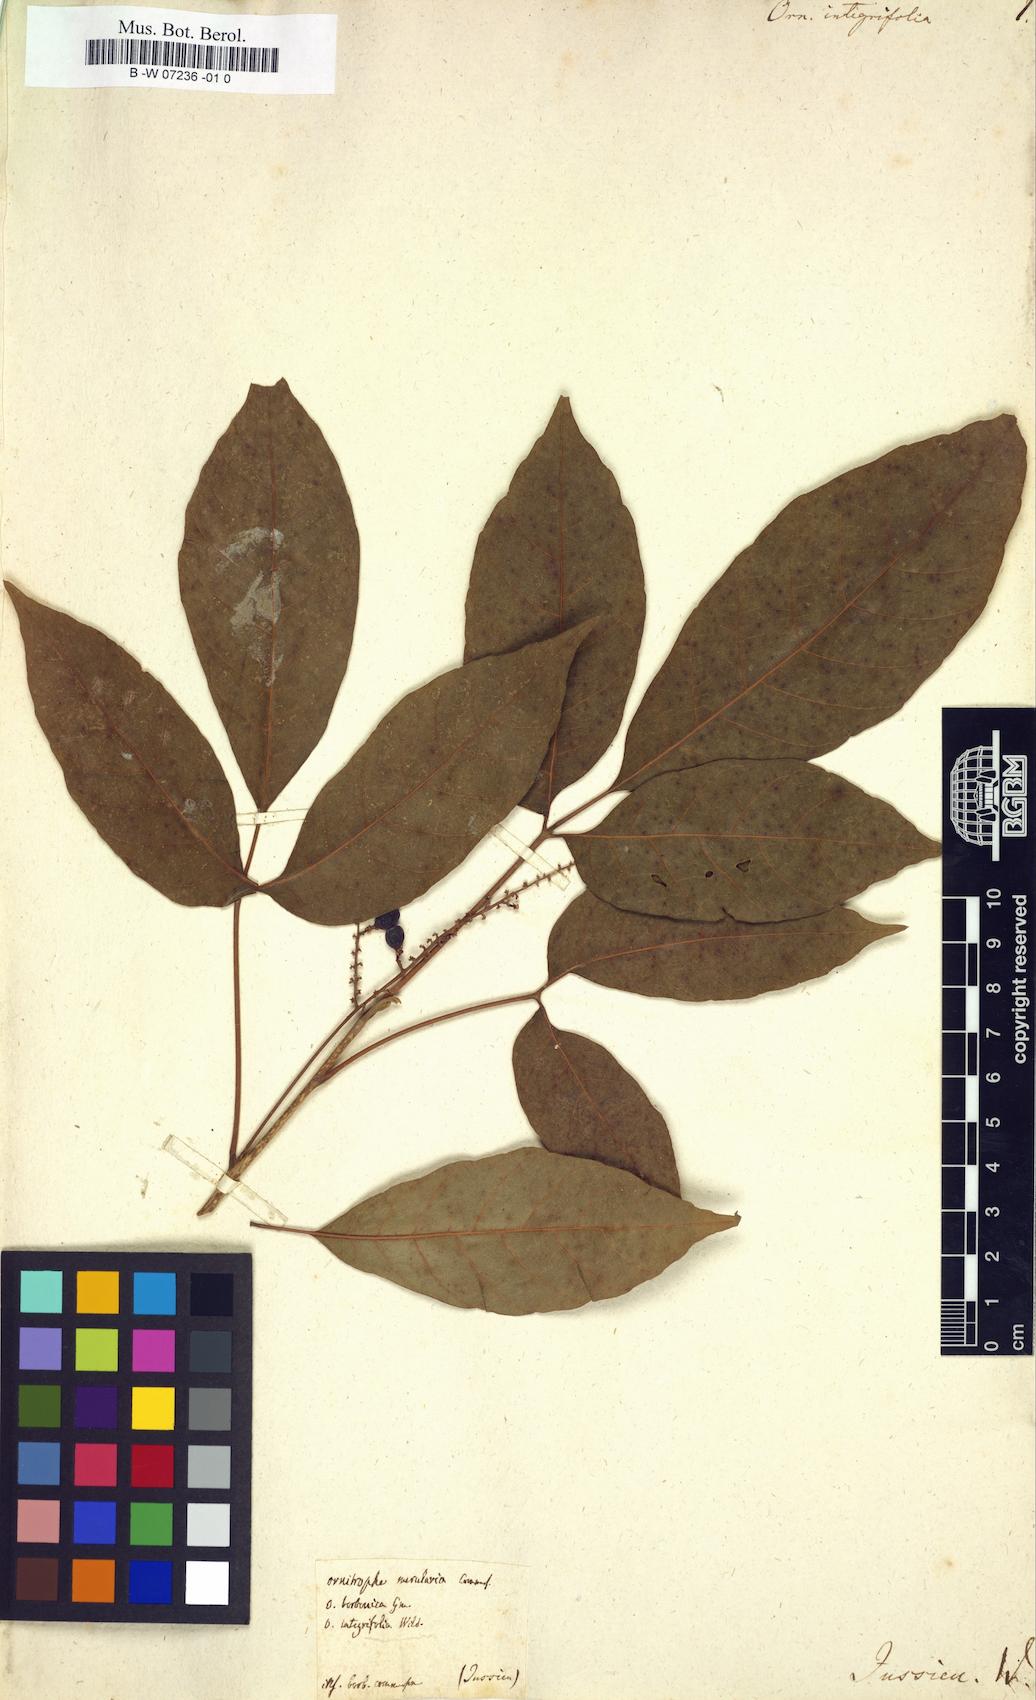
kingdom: Plantae
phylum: Tracheophyta
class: Magnoliopsida
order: Sapindales
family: Sapindaceae
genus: Allophylus
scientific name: Allophylus borbonicus
